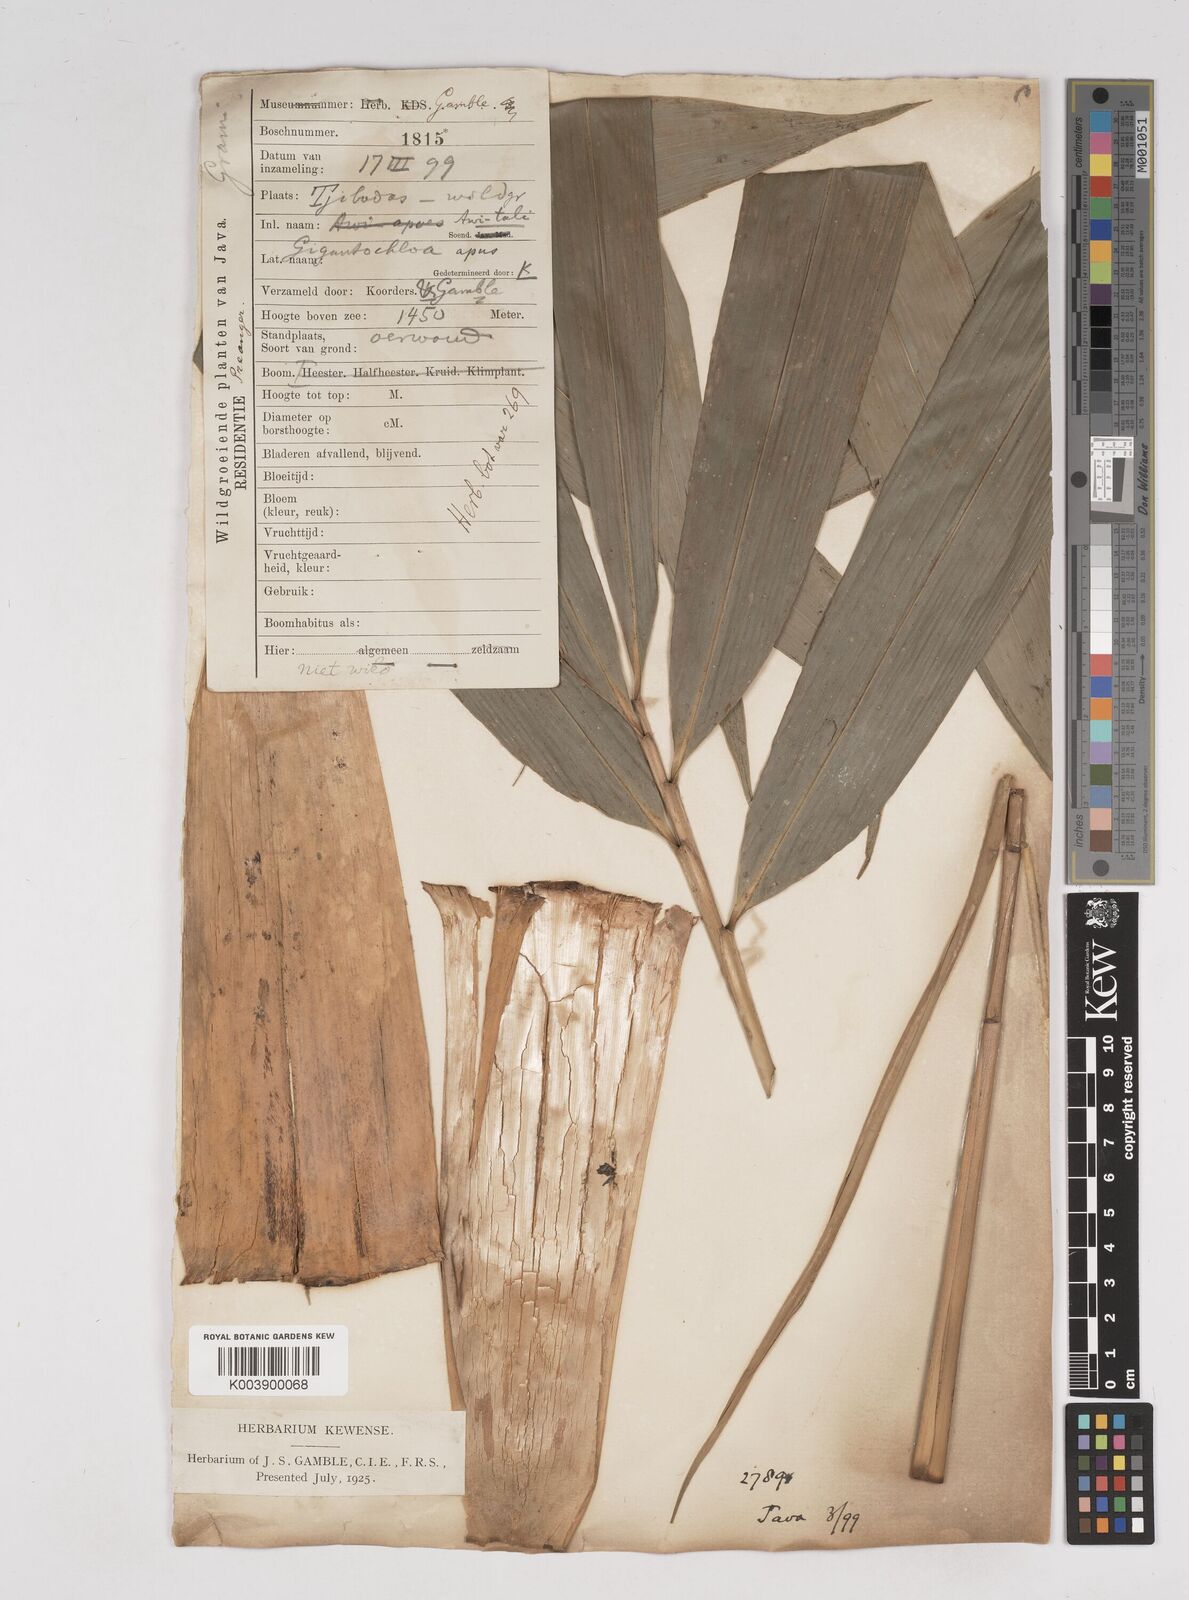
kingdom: Plantae
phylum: Tracheophyta
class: Liliopsida
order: Poales
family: Poaceae
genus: Gigantochloa
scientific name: Gigantochloa apus
